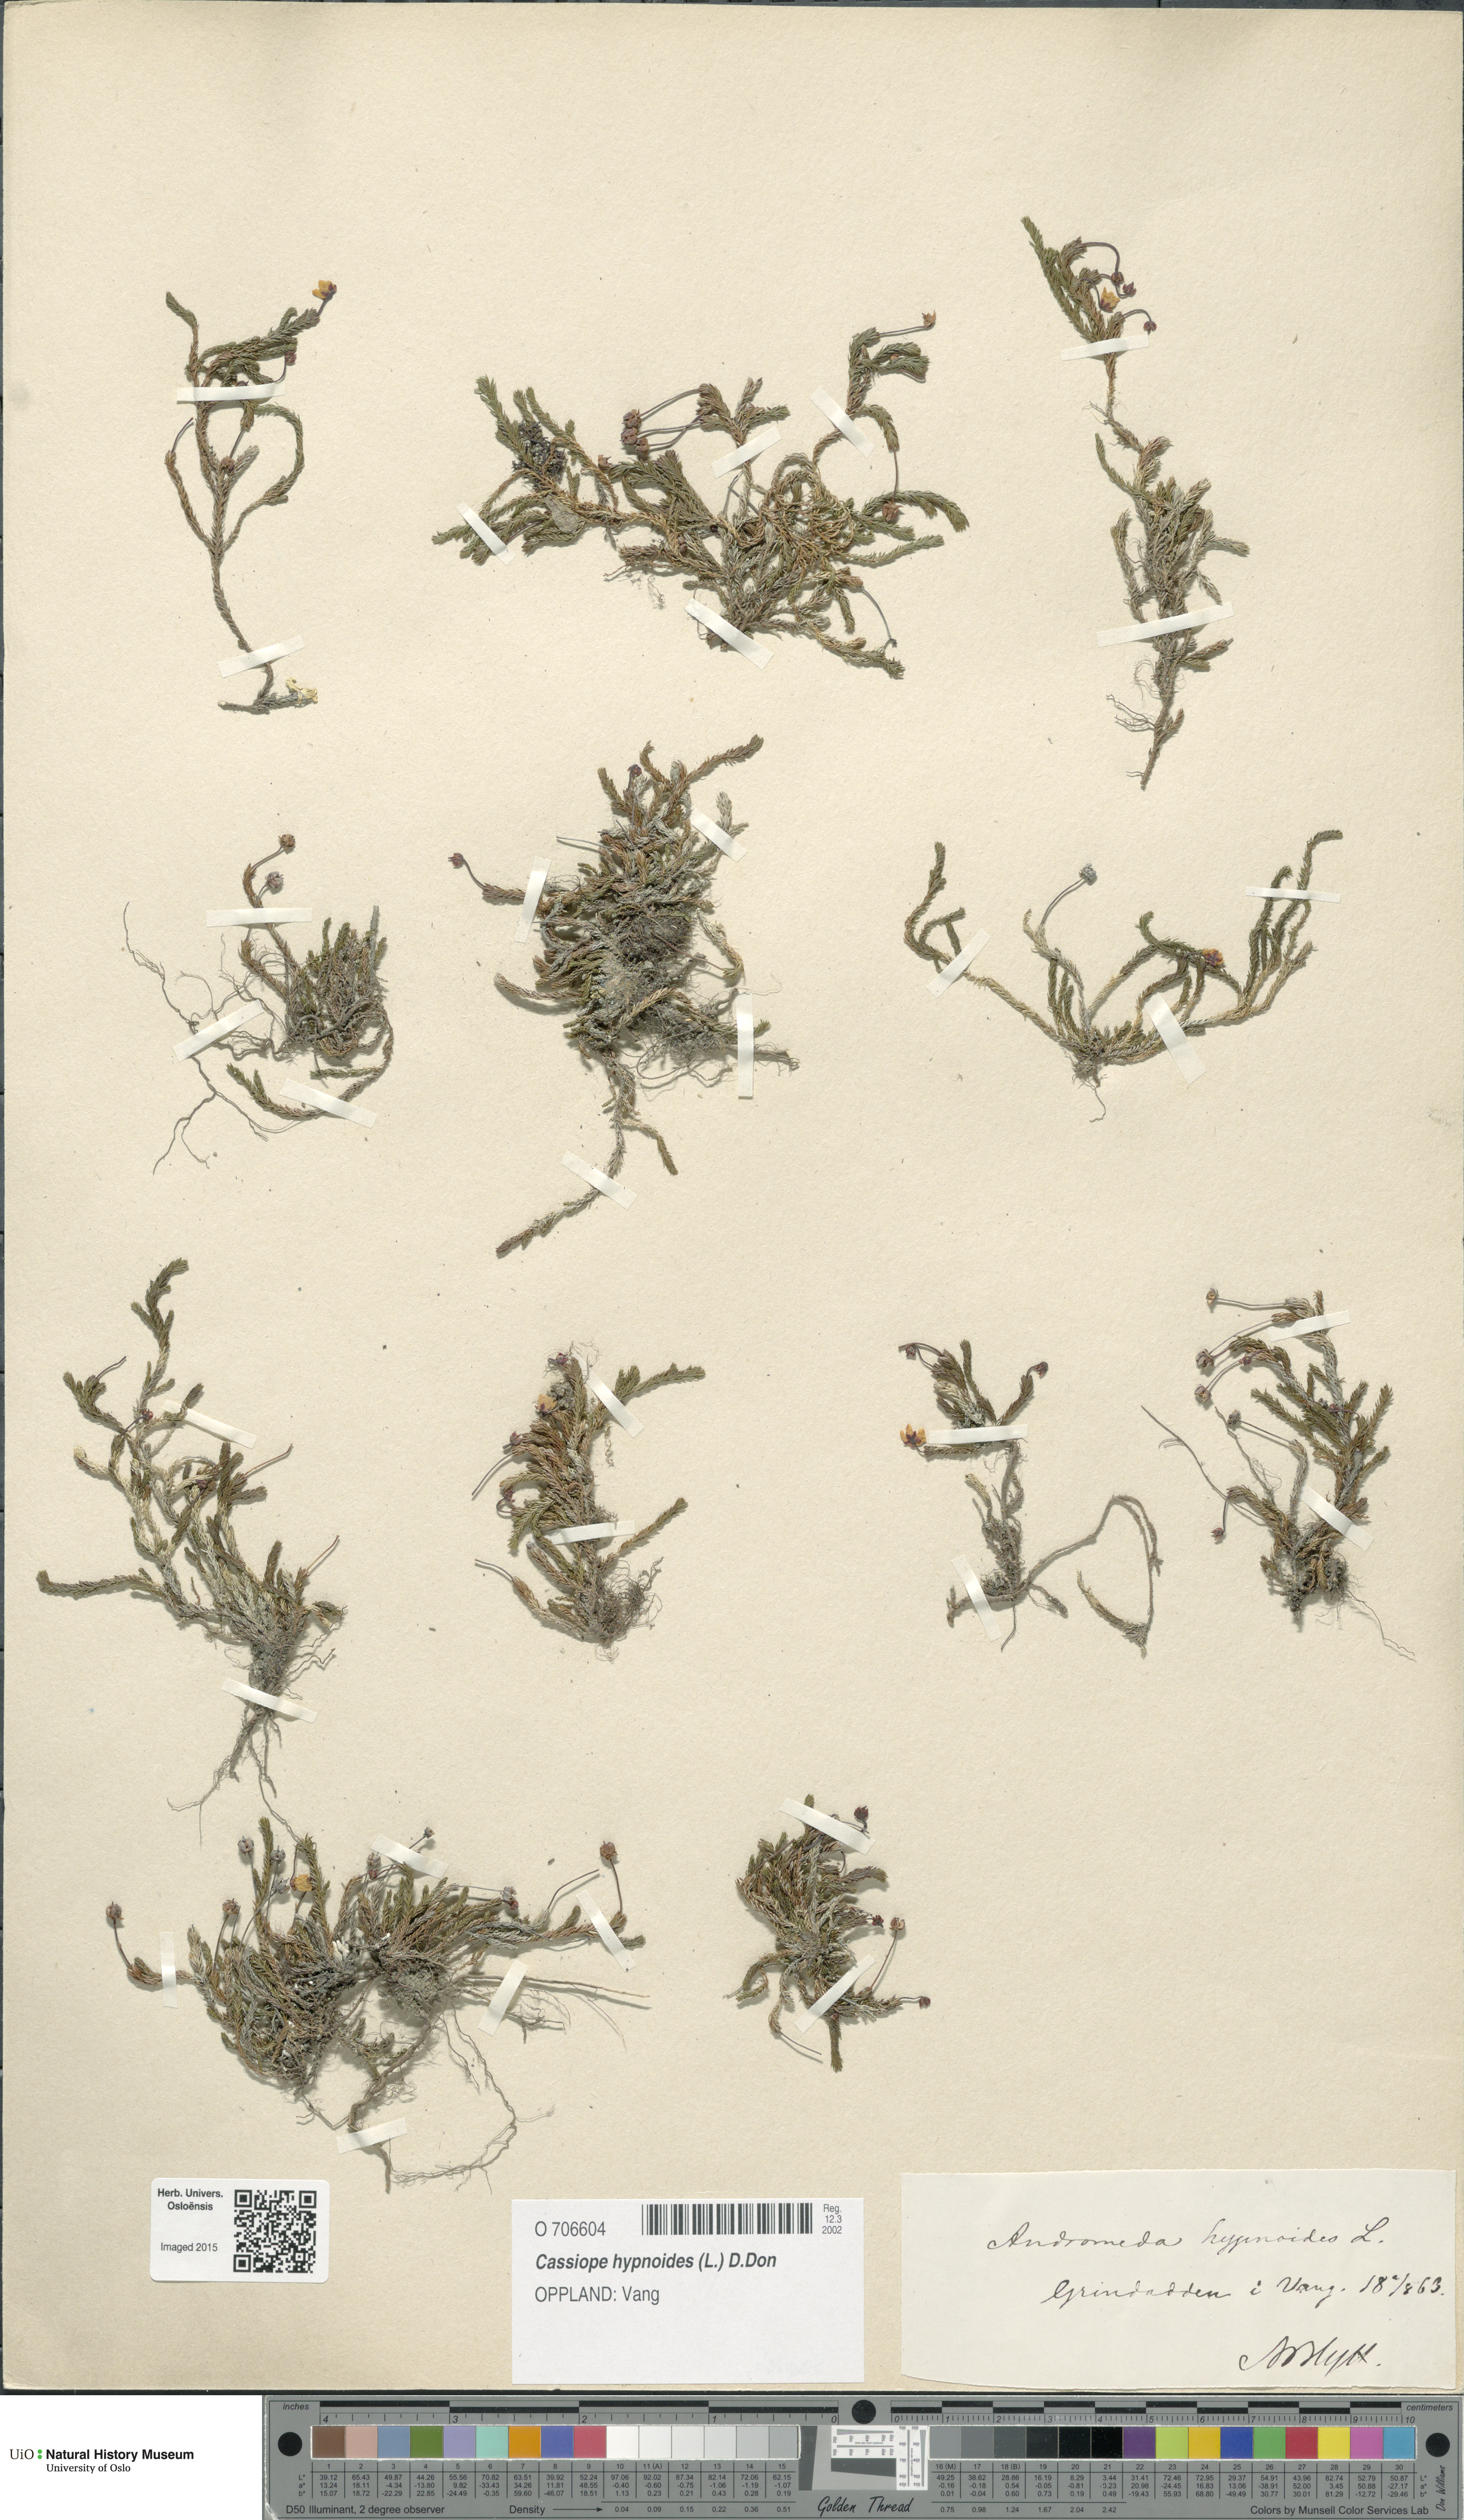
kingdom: Plantae
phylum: Tracheophyta
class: Magnoliopsida
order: Ericales
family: Ericaceae
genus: Harrimanella
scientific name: Harrimanella hypnoides
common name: Moss bell heather
